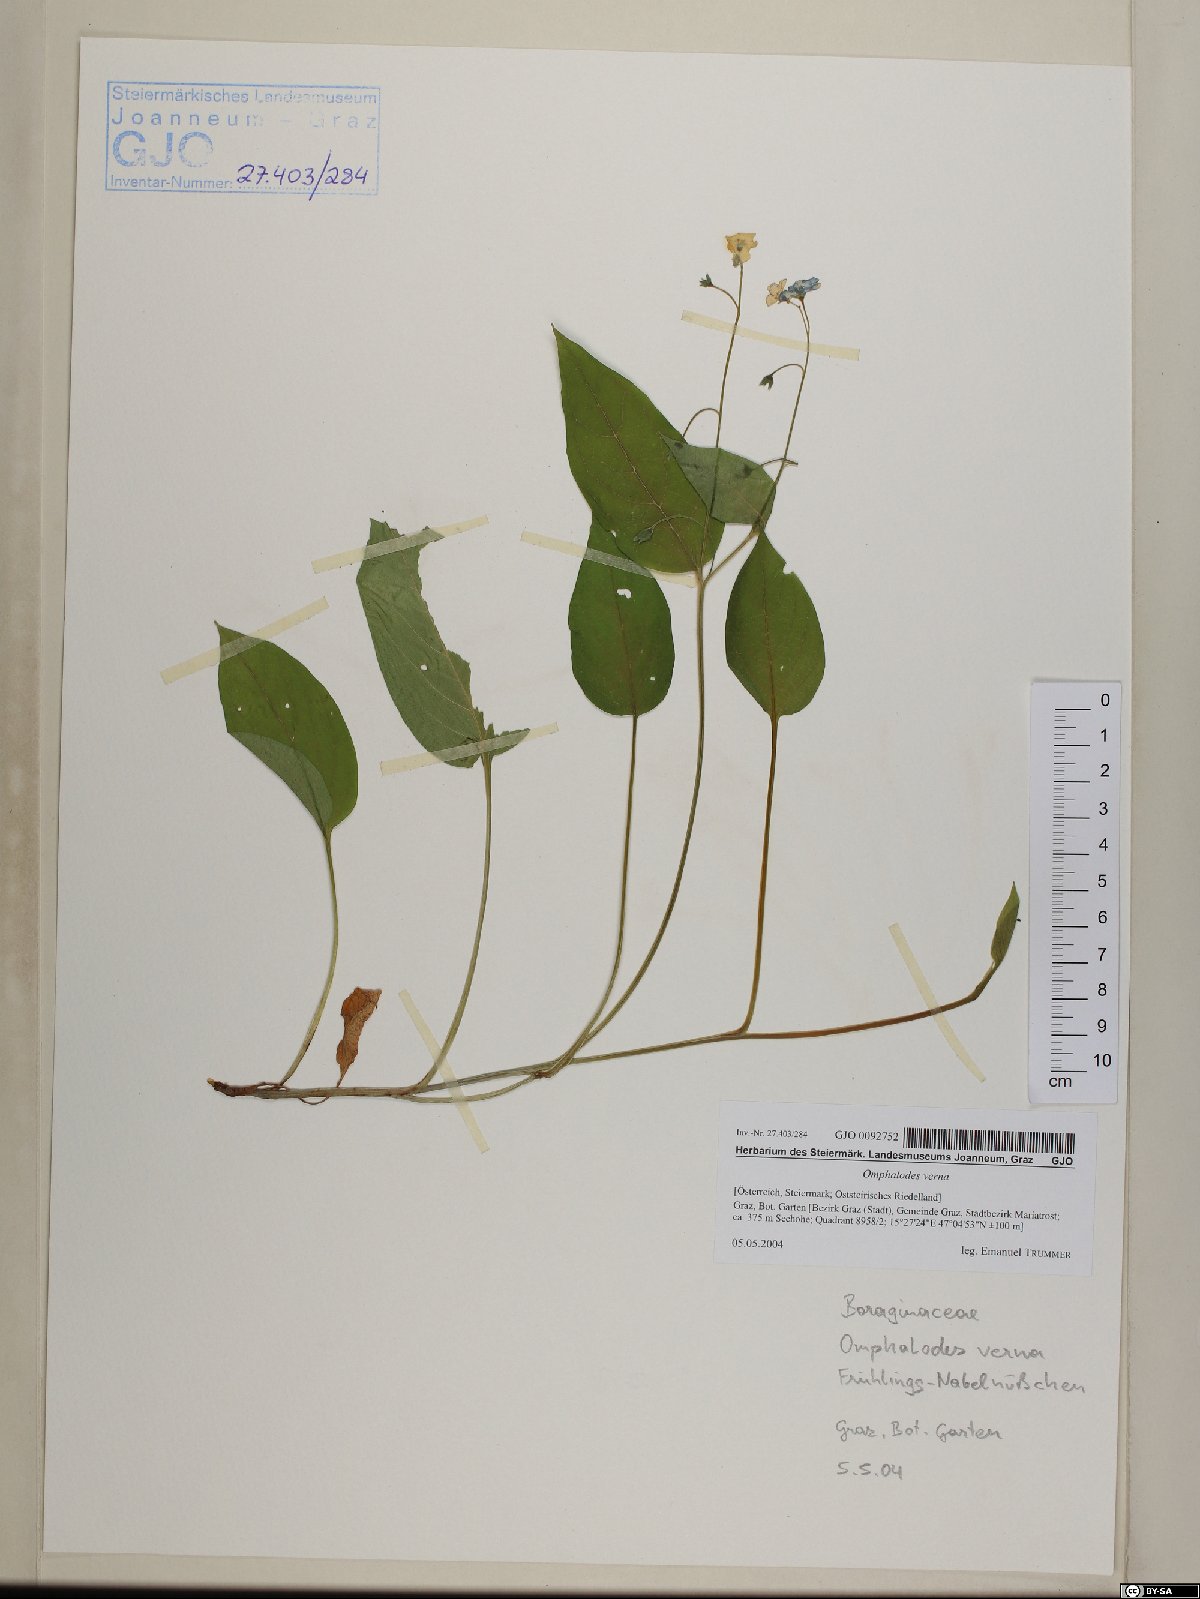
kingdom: Plantae
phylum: Tracheophyta
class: Magnoliopsida
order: Boraginales
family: Boraginaceae
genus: Omphalodes
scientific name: Omphalodes verna
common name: Blue-eyed-mary
